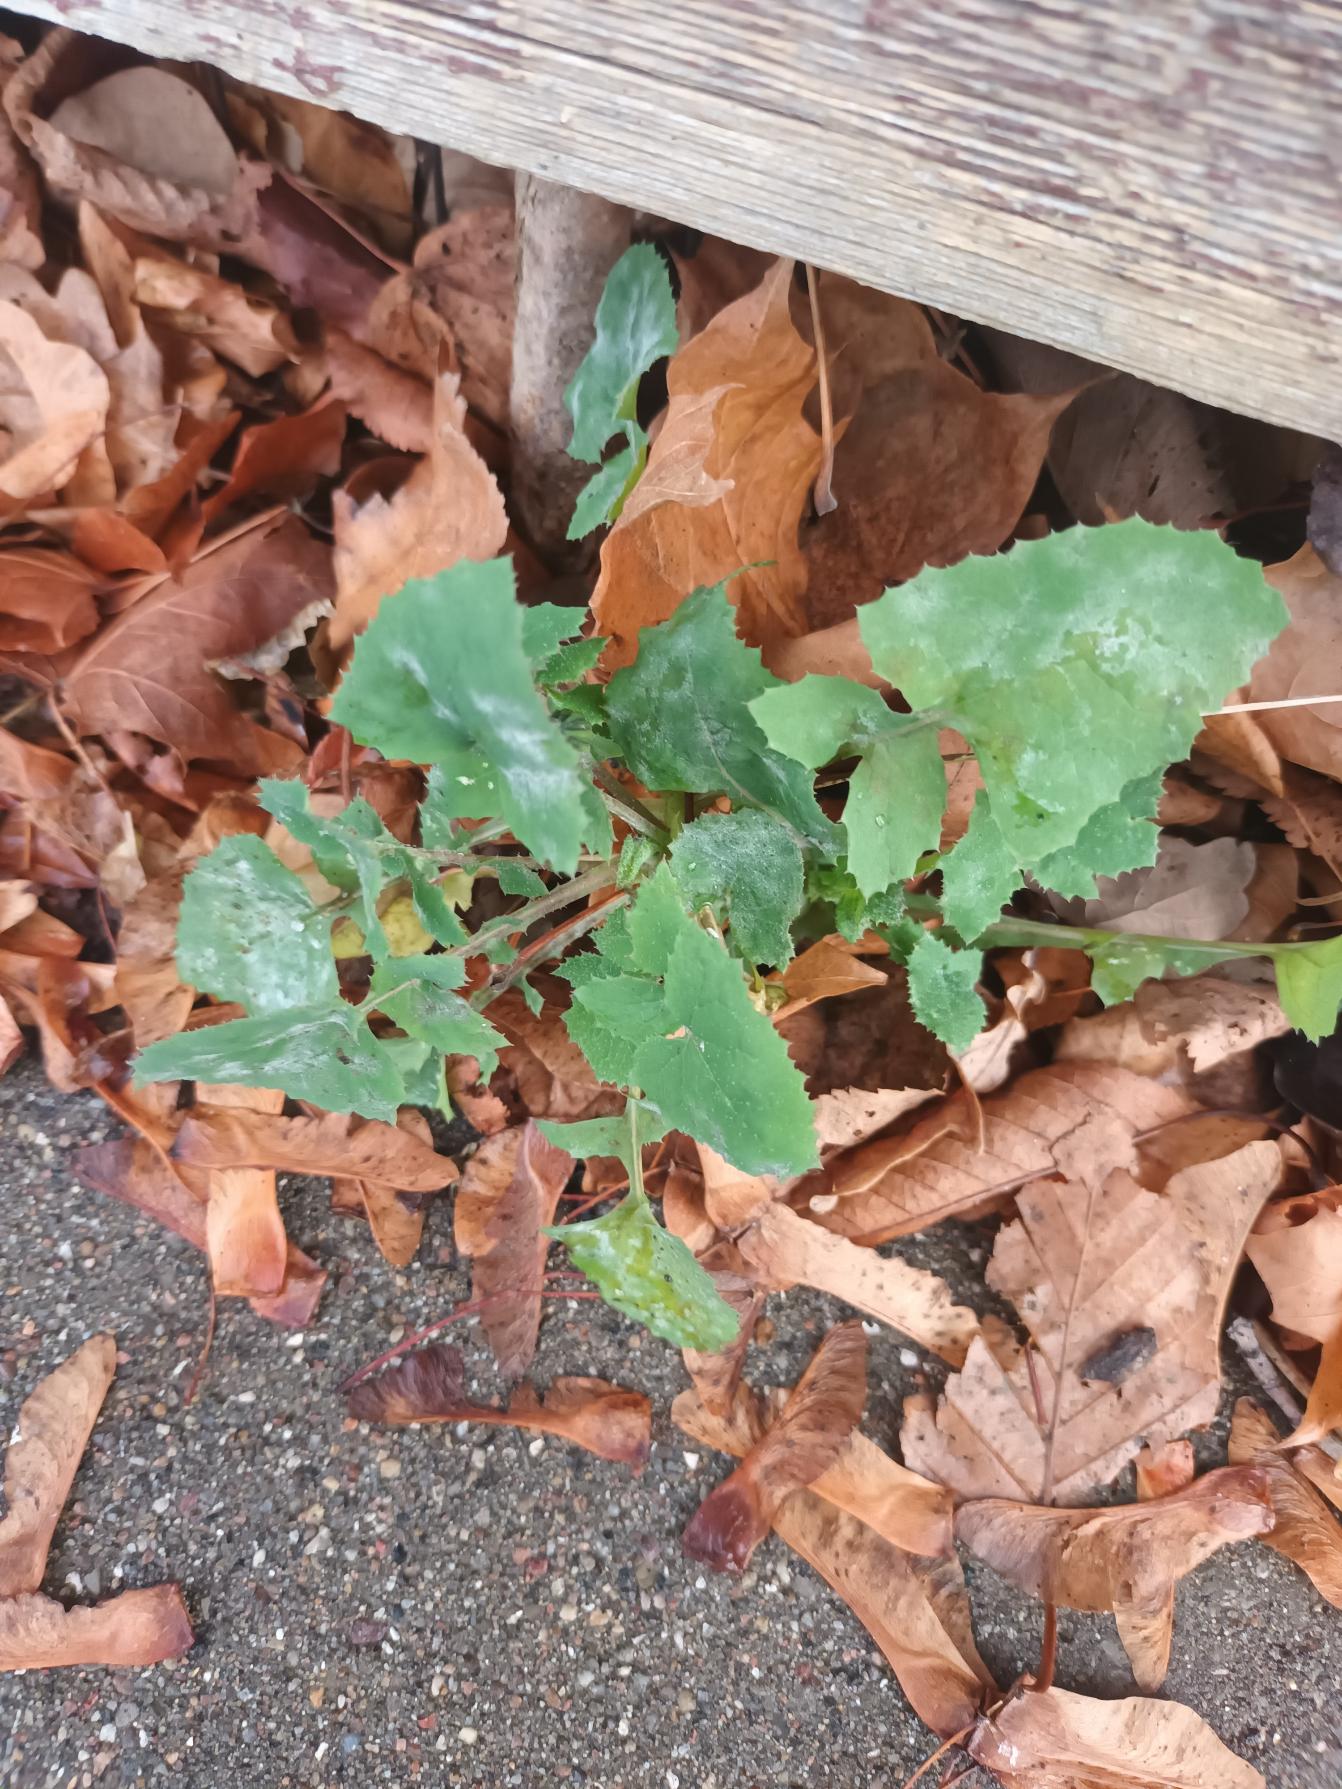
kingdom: Plantae
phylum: Tracheophyta
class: Magnoliopsida
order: Asterales
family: Asteraceae
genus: Sonchus
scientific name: Sonchus oleraceus
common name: Almindelig svinemælk
